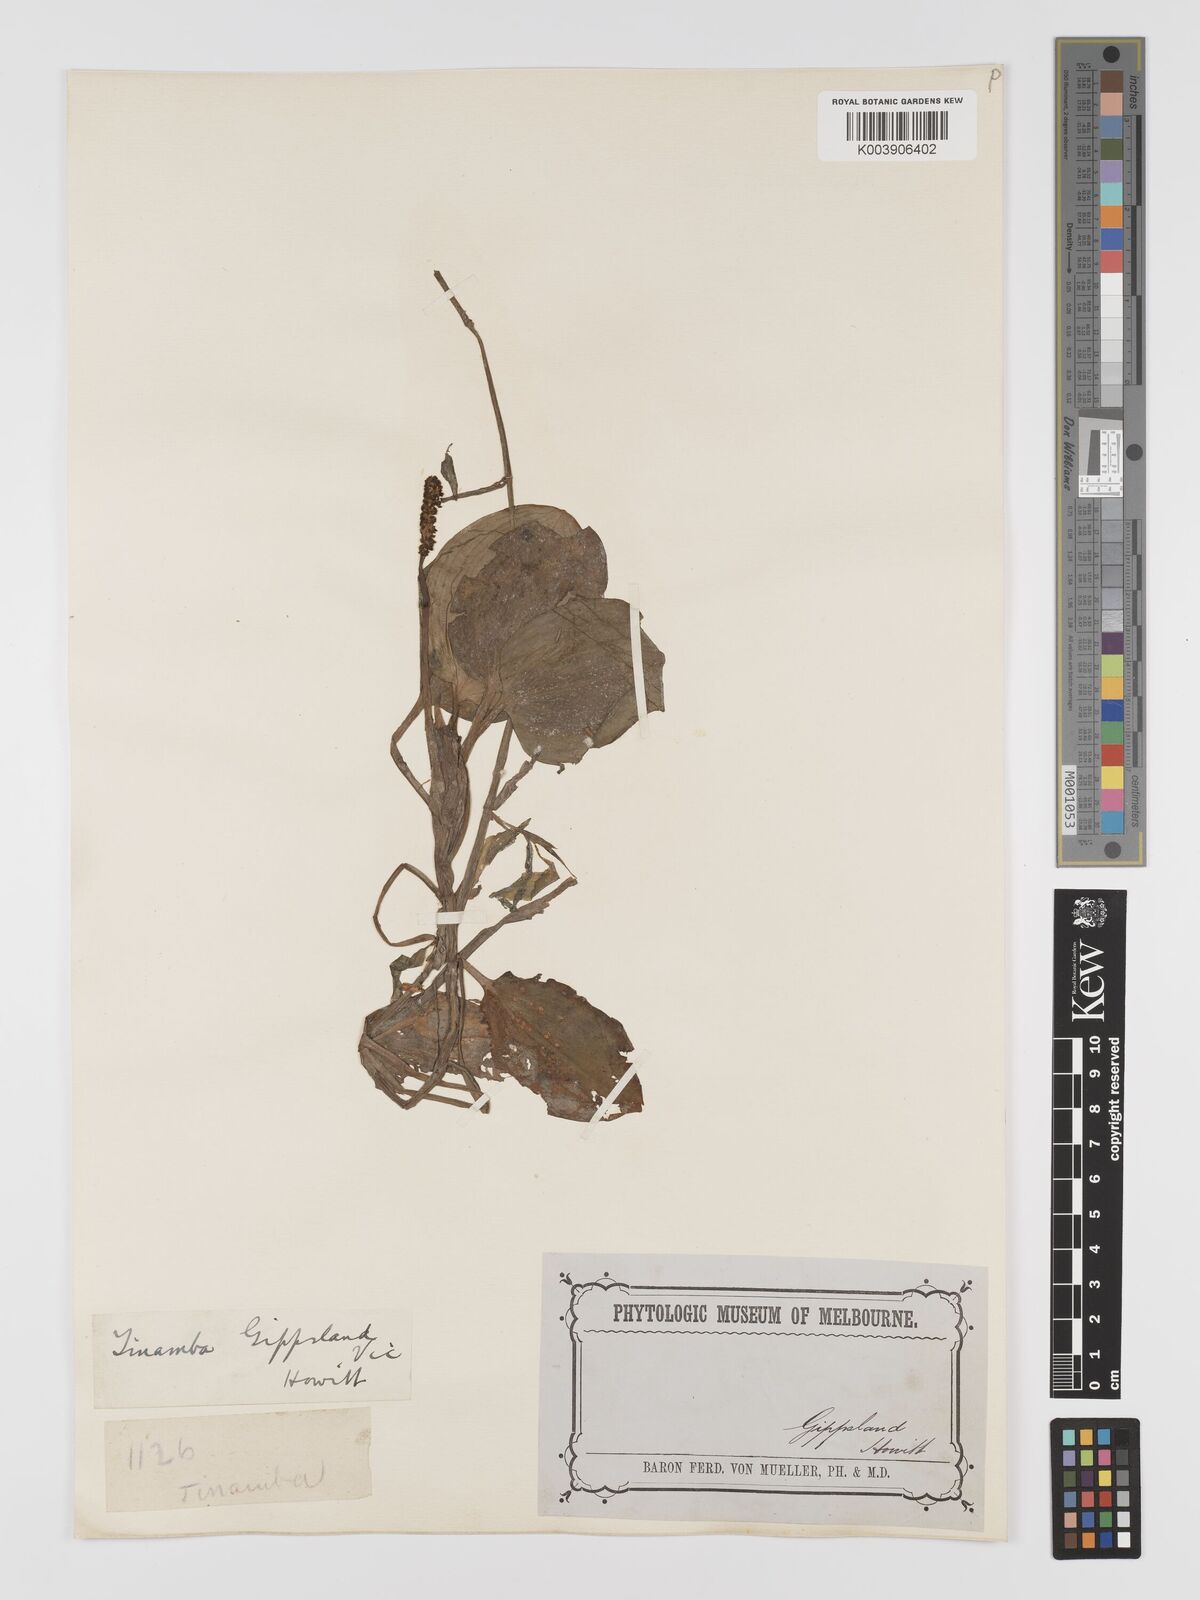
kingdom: Plantae
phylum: Tracheophyta
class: Liliopsida
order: Alismatales
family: Potamogetonaceae
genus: Potamogeton
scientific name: Potamogeton tricarinatus
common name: Pondweed
